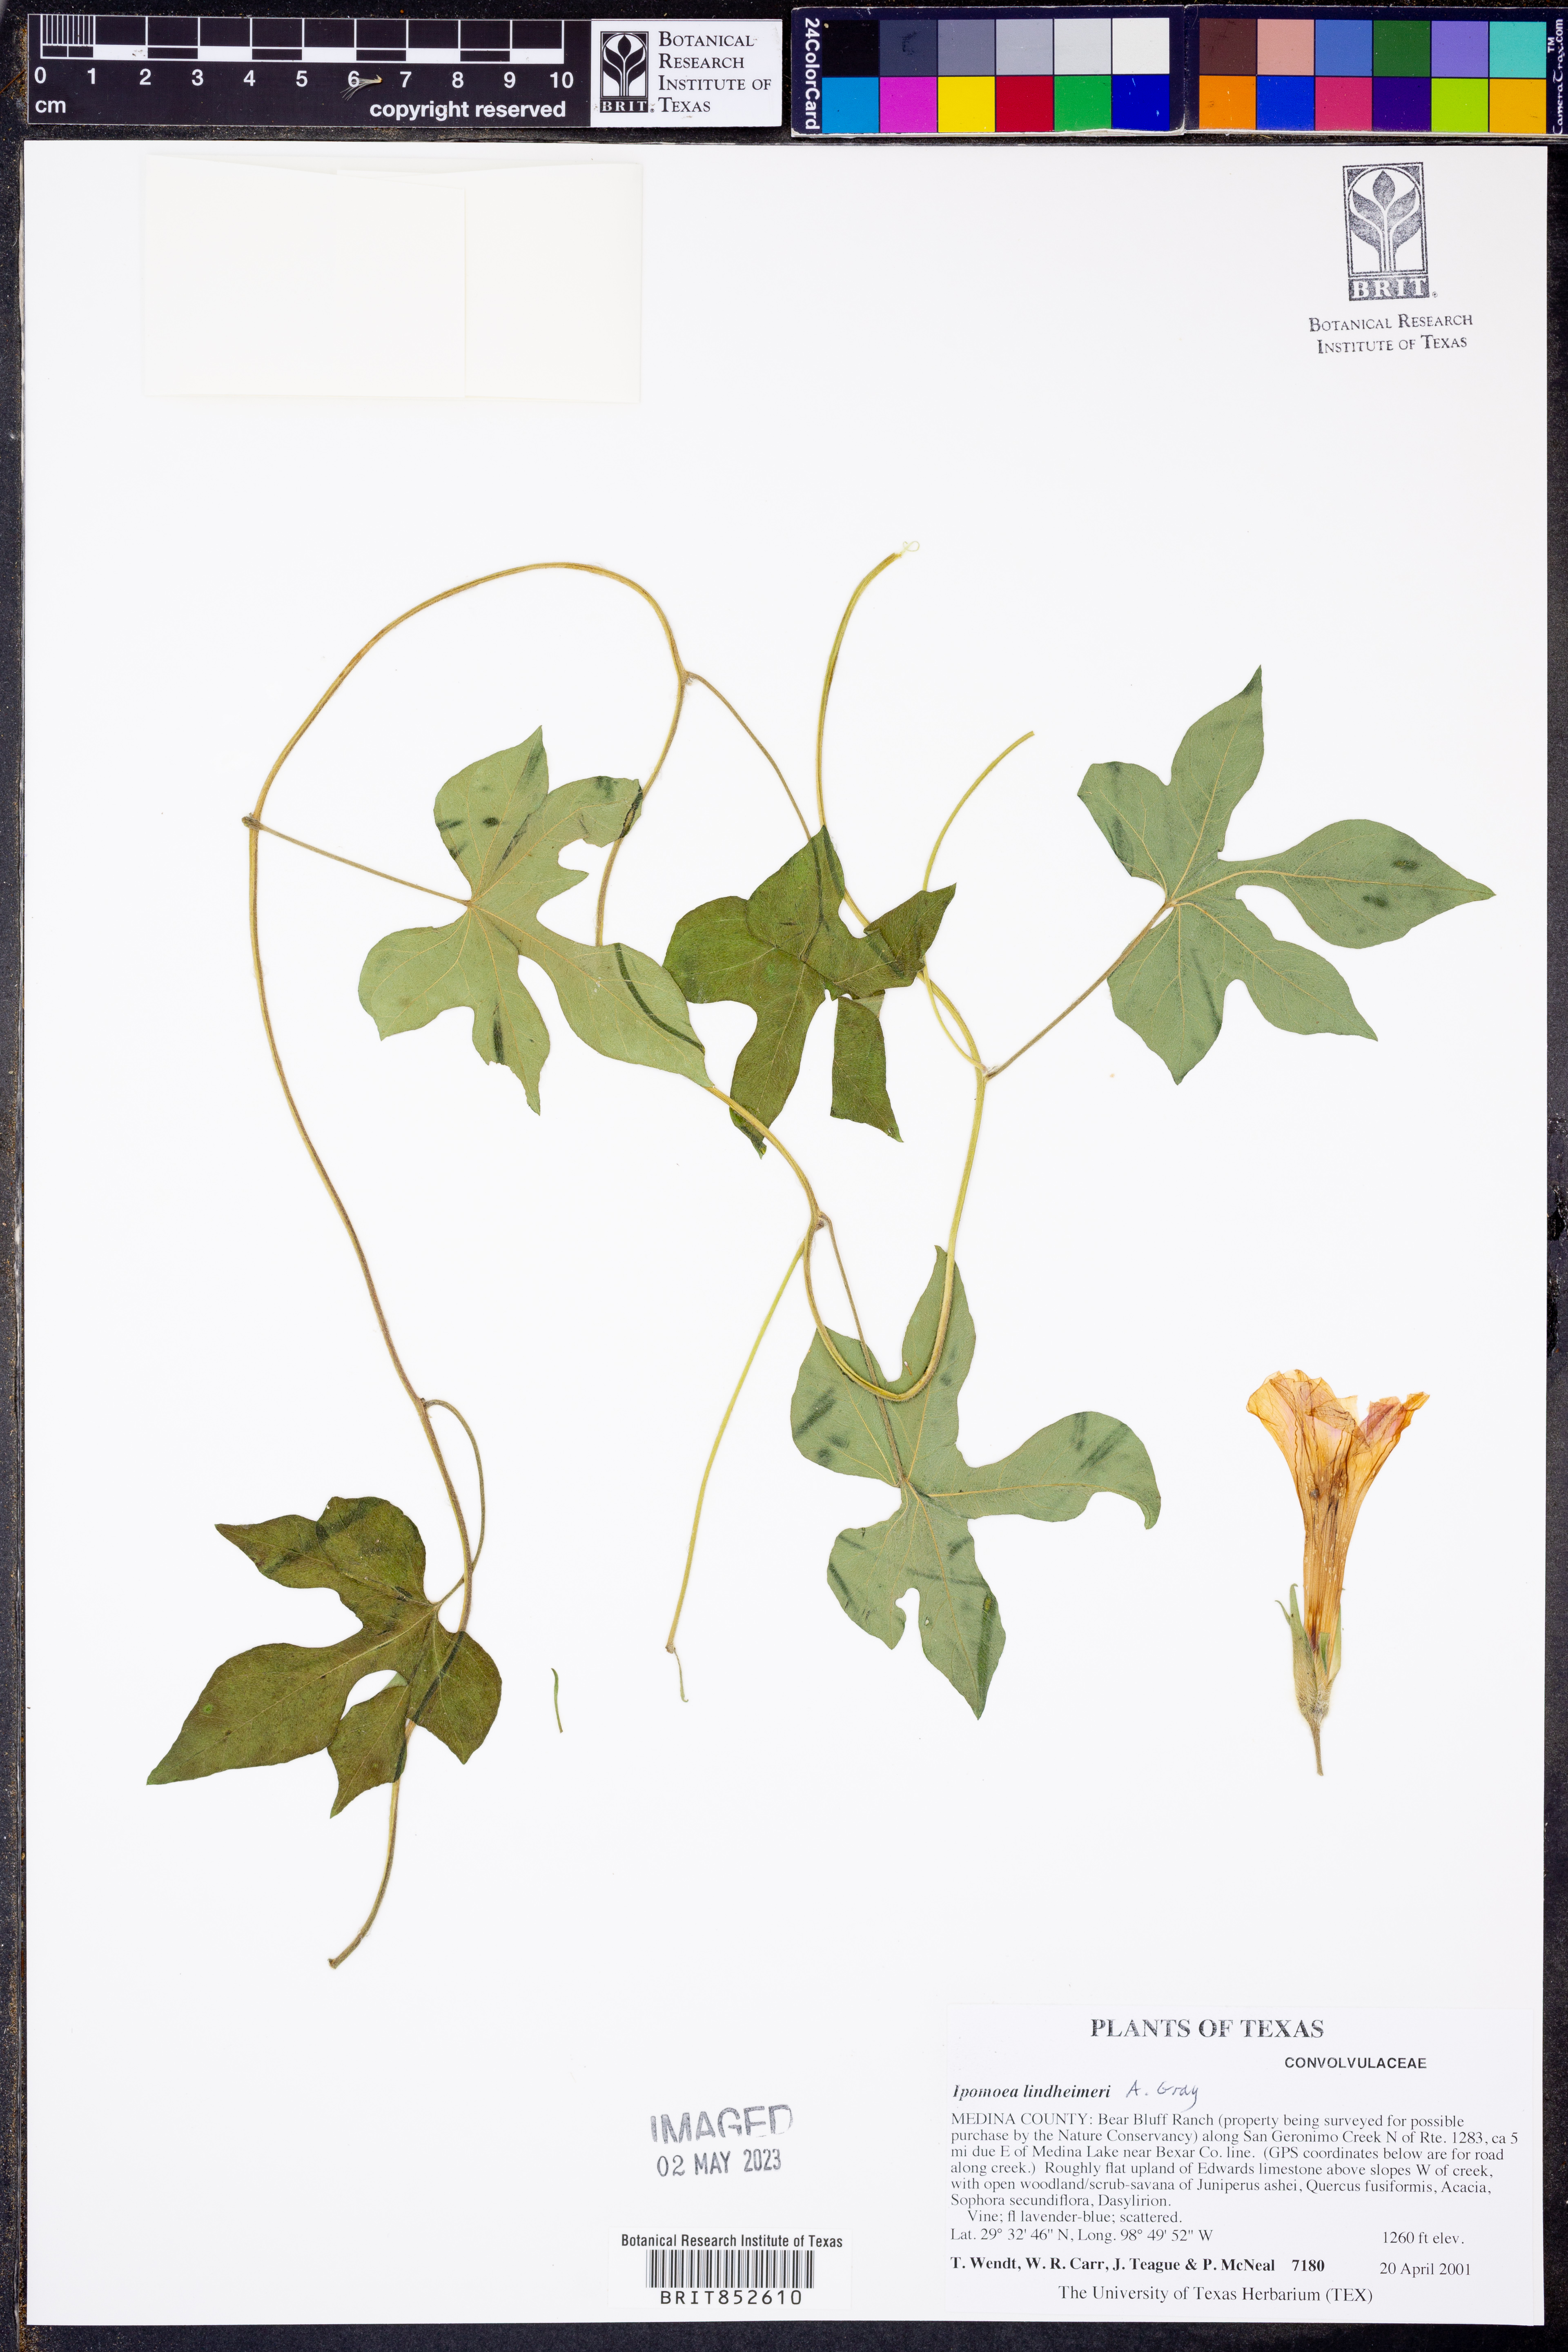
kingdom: Plantae
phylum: Tracheophyta
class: Magnoliopsida
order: Solanales
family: Convolvulaceae
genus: Ipomoea
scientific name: Ipomoea lindheimeri
